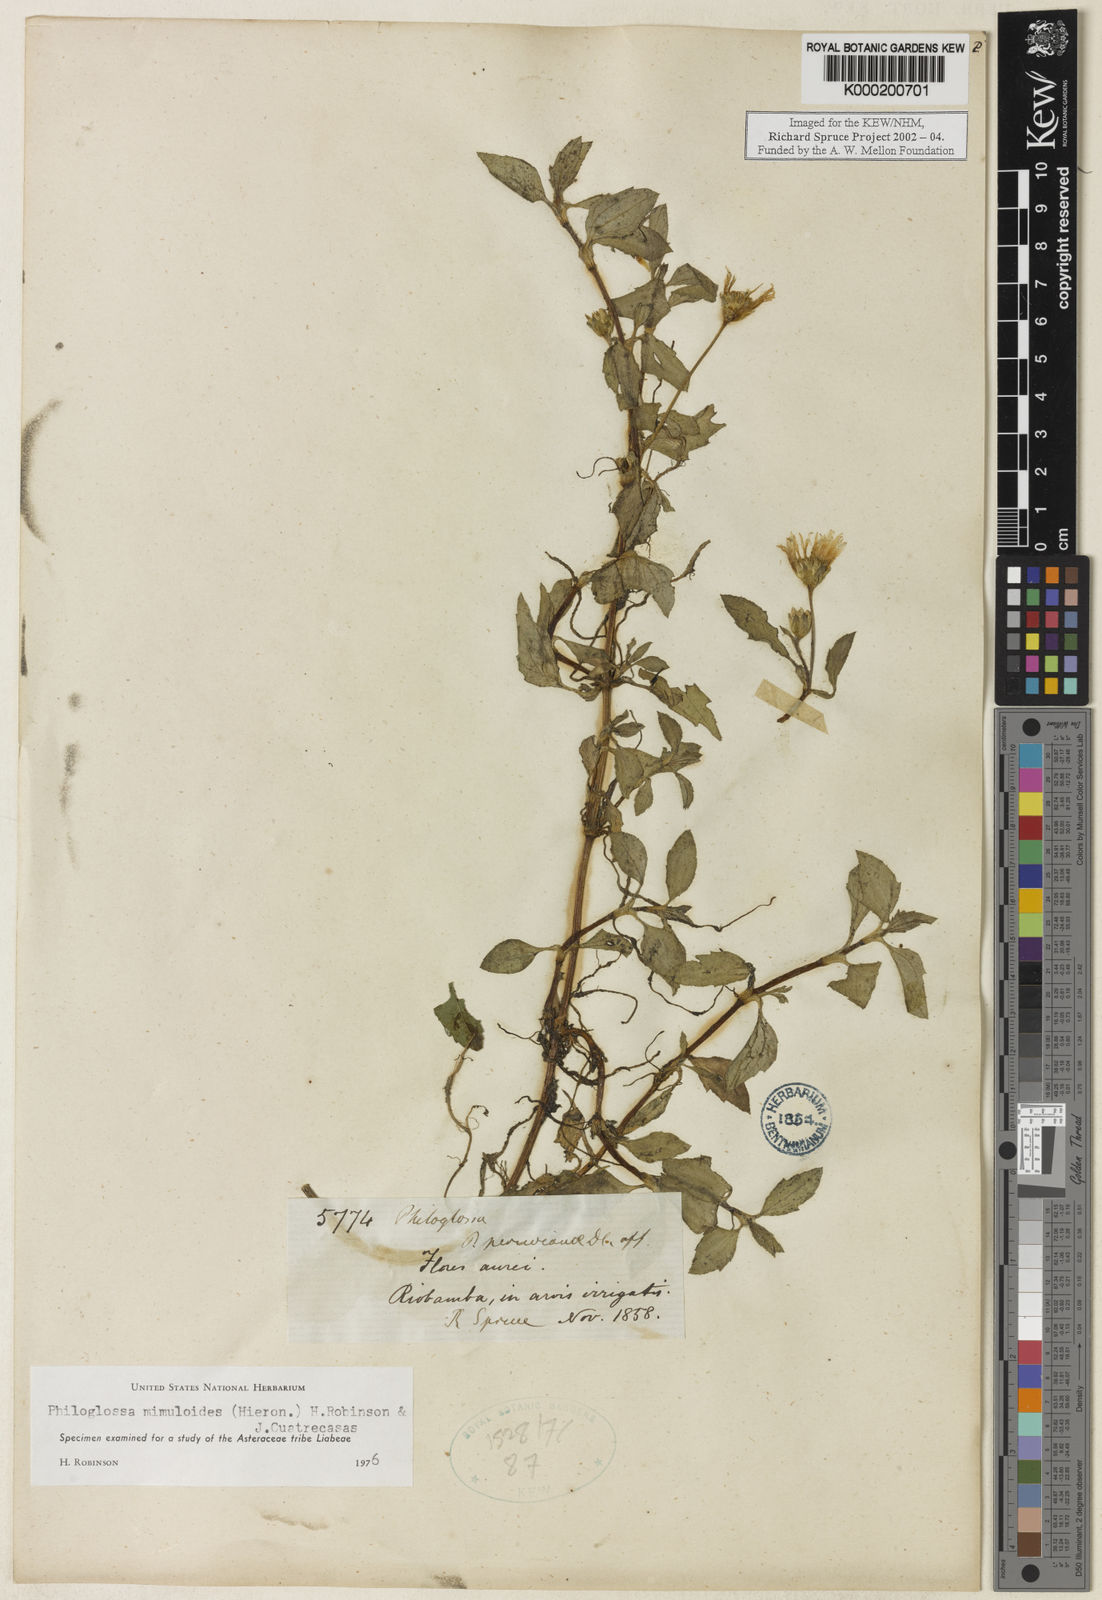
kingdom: Plantae
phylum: Tracheophyta
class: Magnoliopsida
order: Asterales
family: Asteraceae
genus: Philoglossa
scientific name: Philoglossa mimuloides
